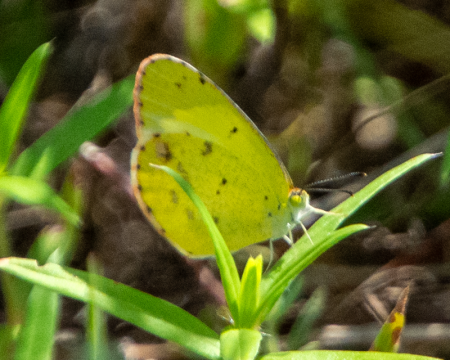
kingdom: Animalia
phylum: Arthropoda
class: Insecta
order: Lepidoptera
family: Pieridae
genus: Pyrisitia
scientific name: Pyrisitia lisa
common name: Little Yellow
